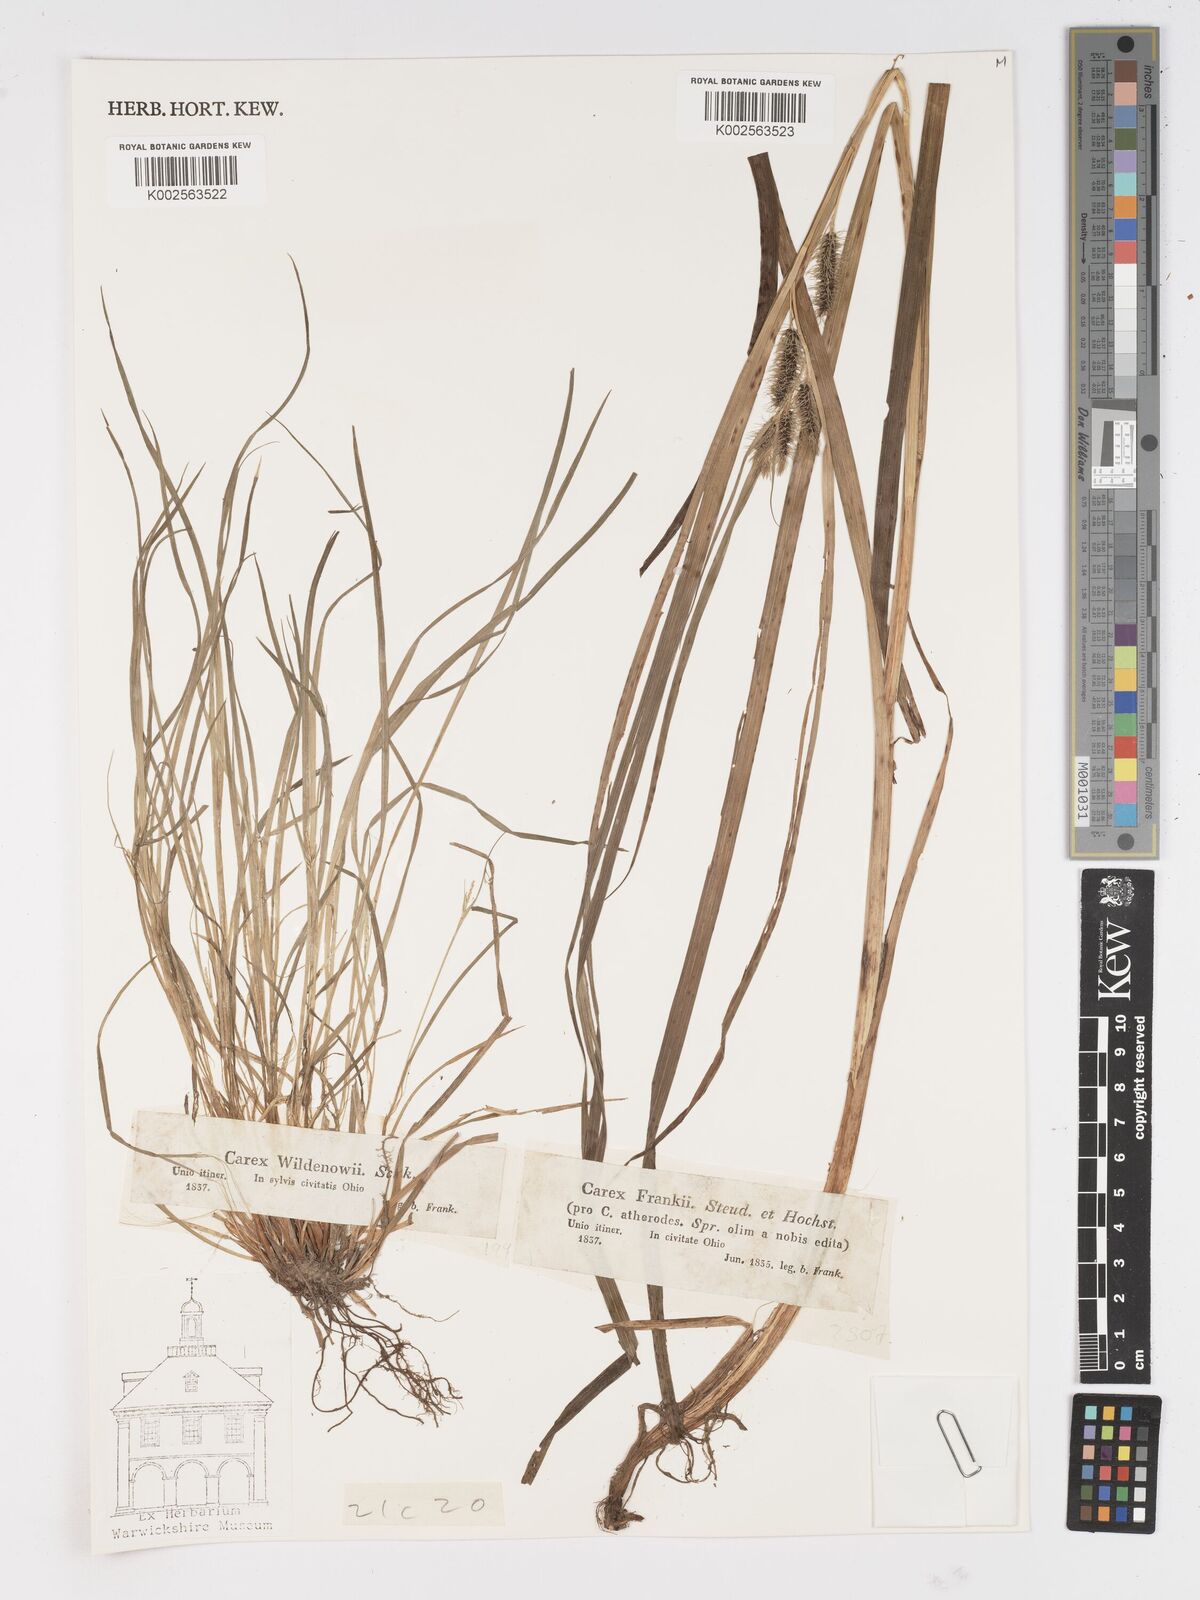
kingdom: Plantae
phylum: Tracheophyta
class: Liliopsida
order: Poales
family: Cyperaceae
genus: Carex
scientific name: Carex frankii
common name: Frank's sedge
